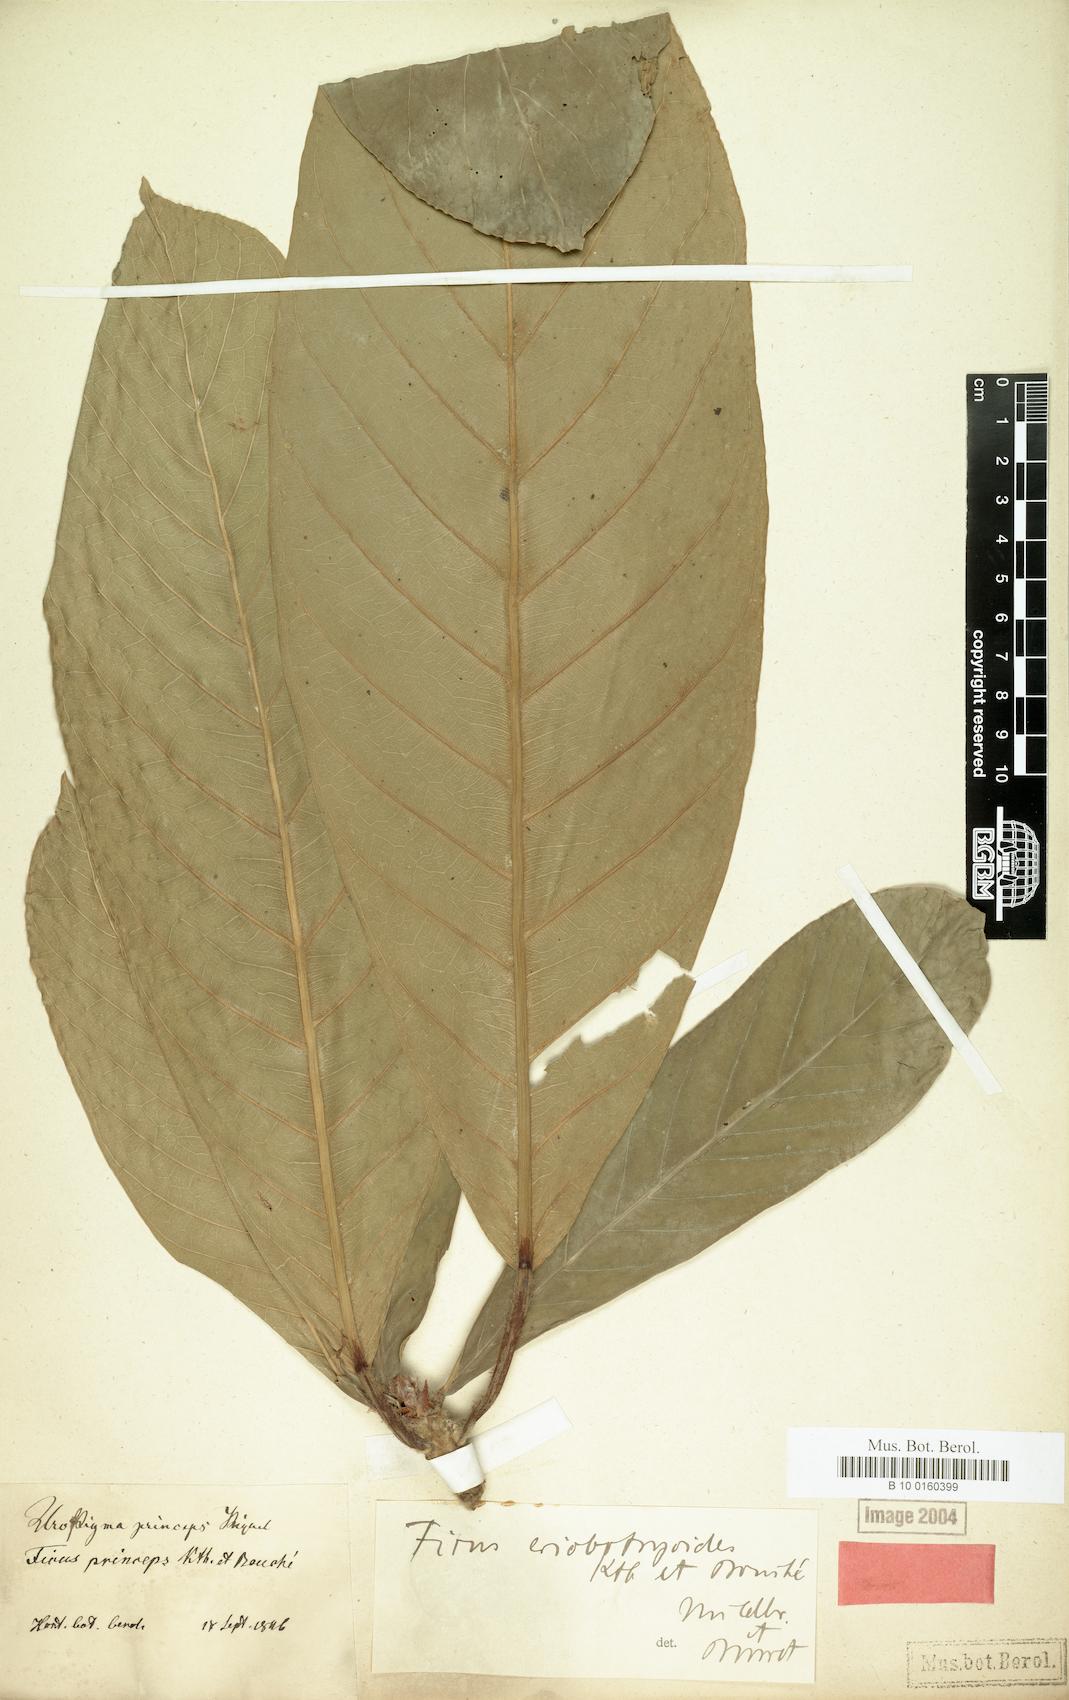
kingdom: Plantae
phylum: Tracheophyta
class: Magnoliopsida
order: Rosales
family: Moraceae
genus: Ficus
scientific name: Ficus
